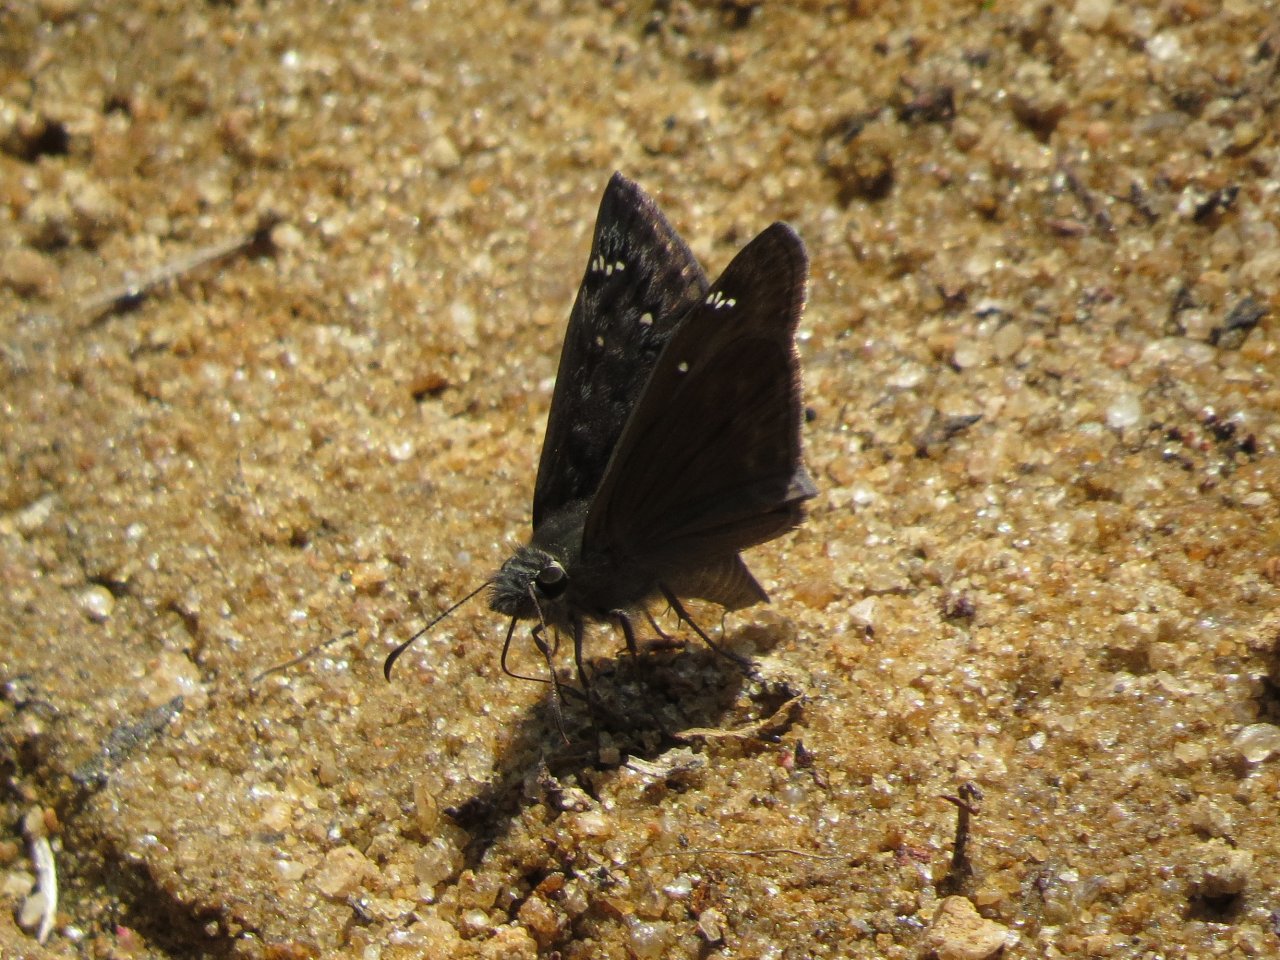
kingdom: Animalia
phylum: Arthropoda
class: Insecta
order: Lepidoptera
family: Hesperiidae
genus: Gesta
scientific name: Gesta
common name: Horace's Duskywing
